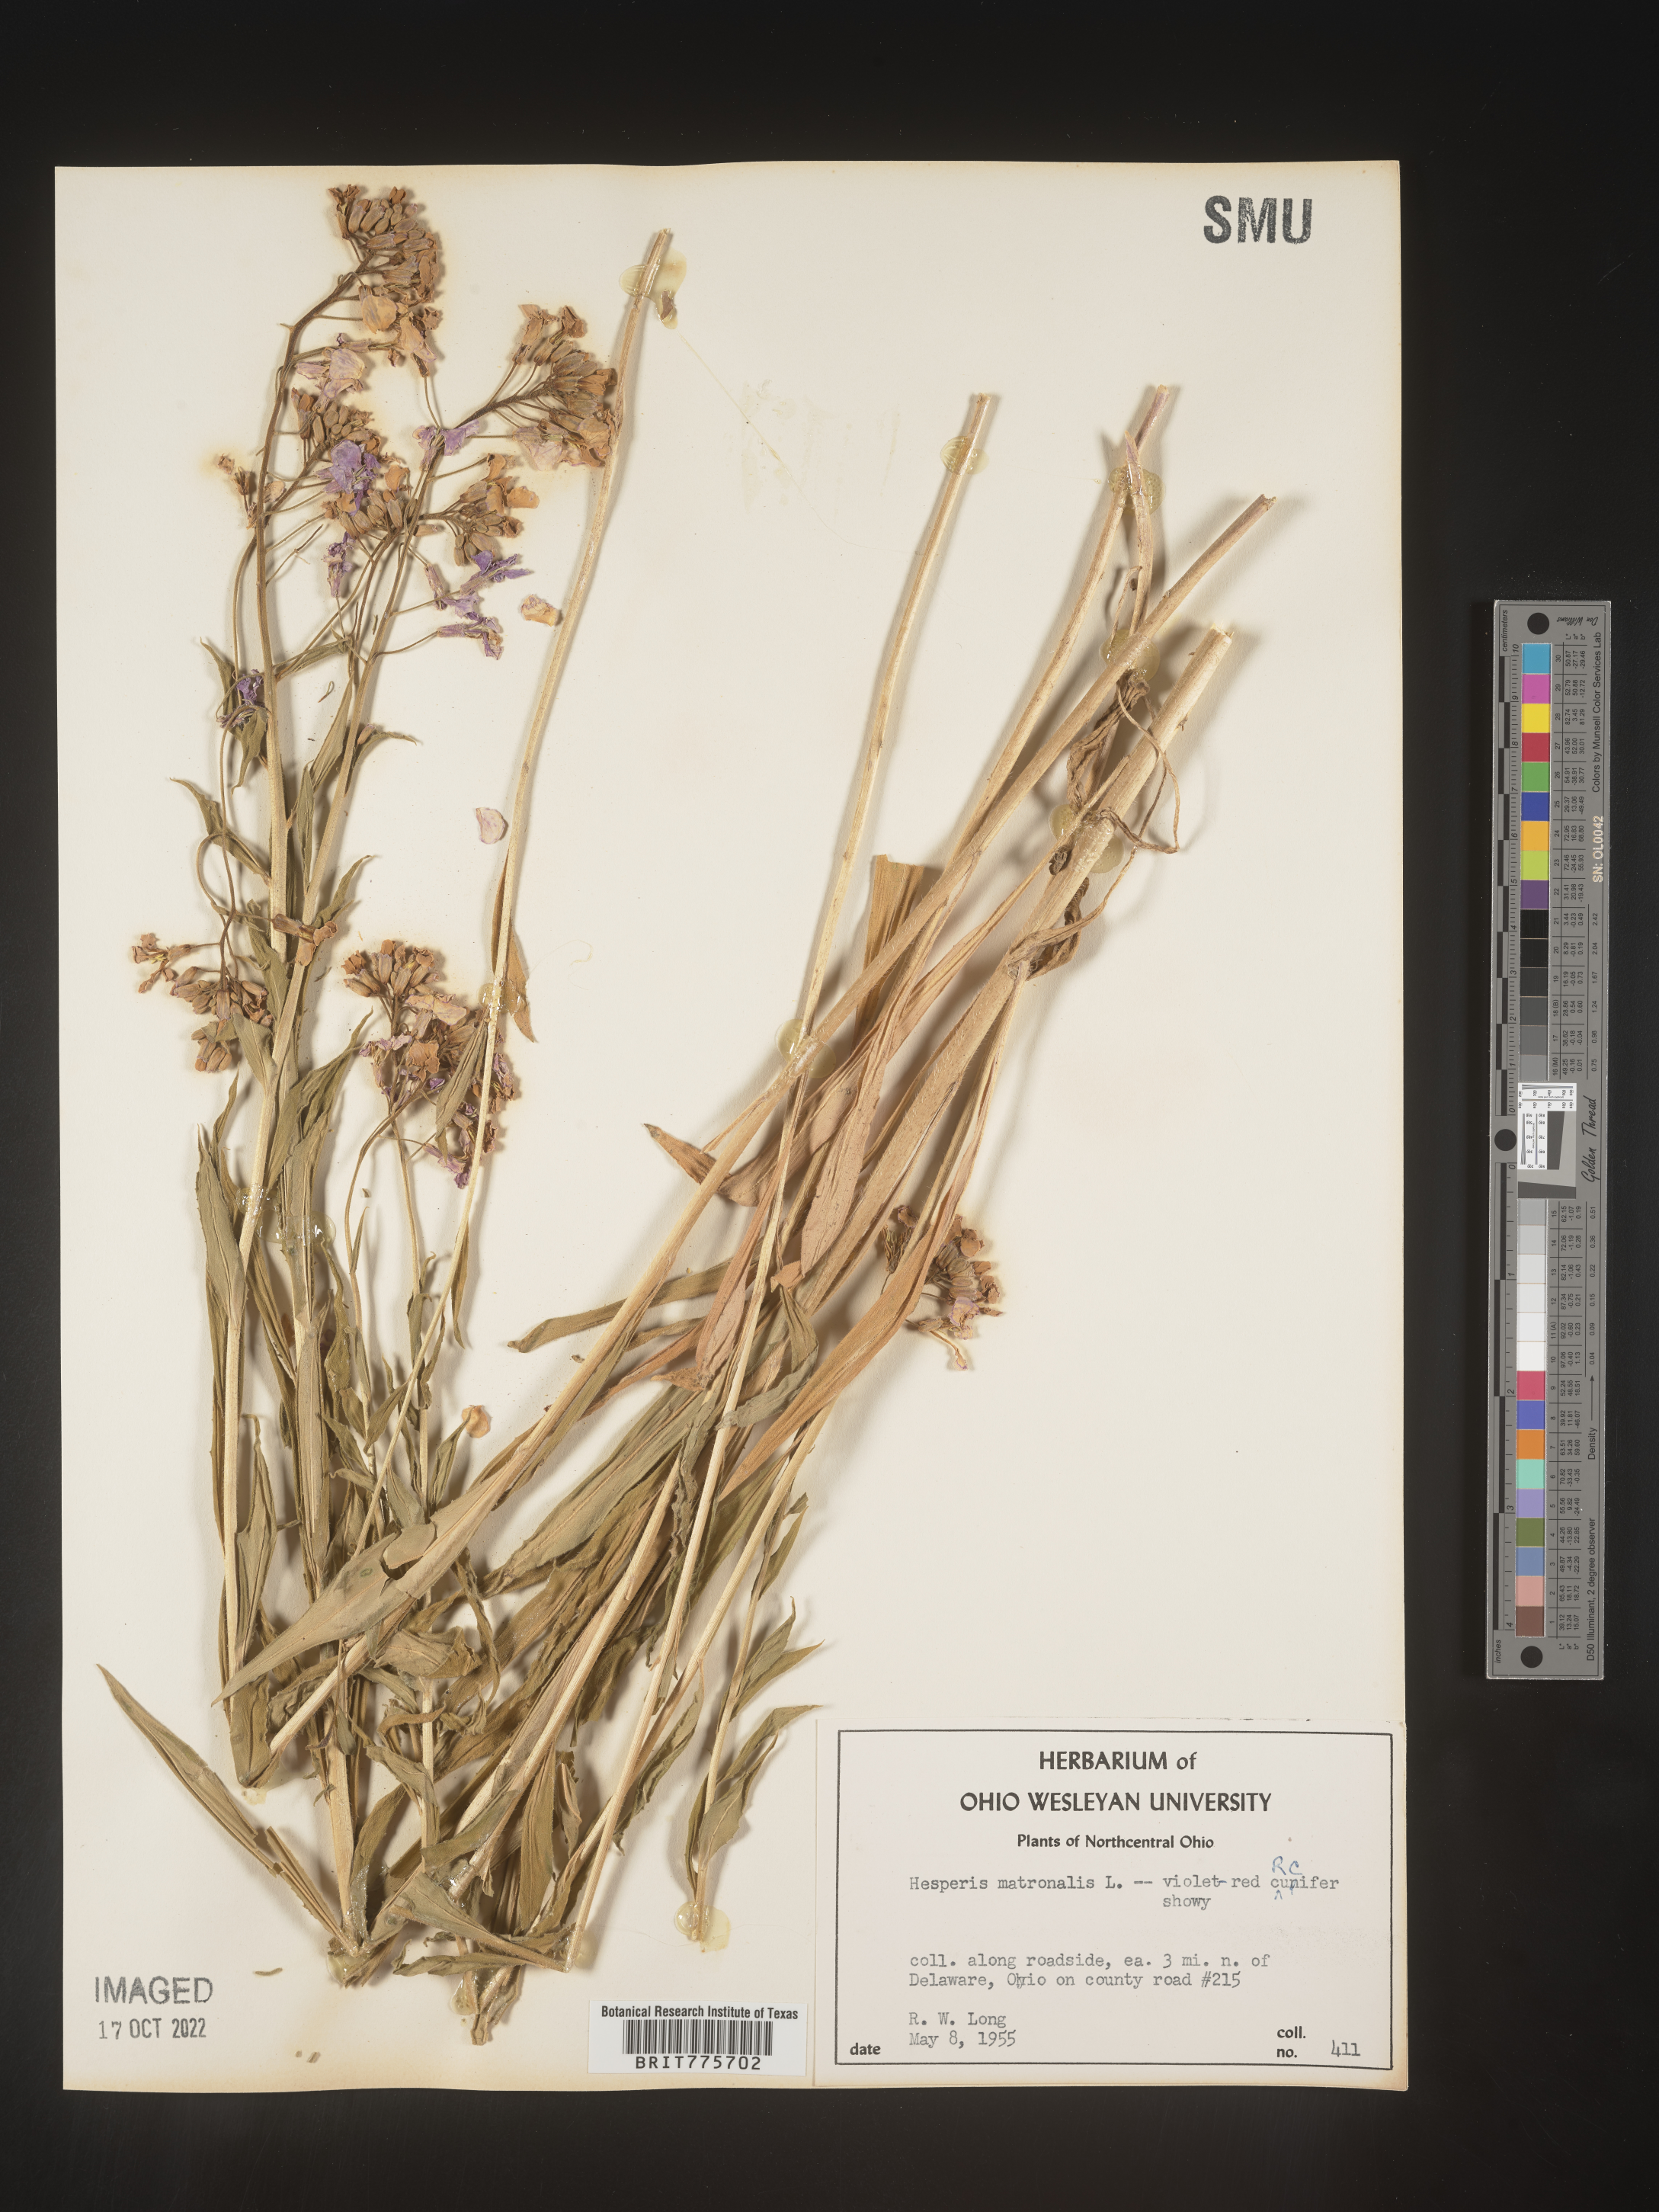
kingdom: Plantae
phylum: Tracheophyta
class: Magnoliopsida
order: Brassicales
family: Brassicaceae
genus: Hesperis
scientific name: Hesperis matronalis
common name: Dame's-violet
